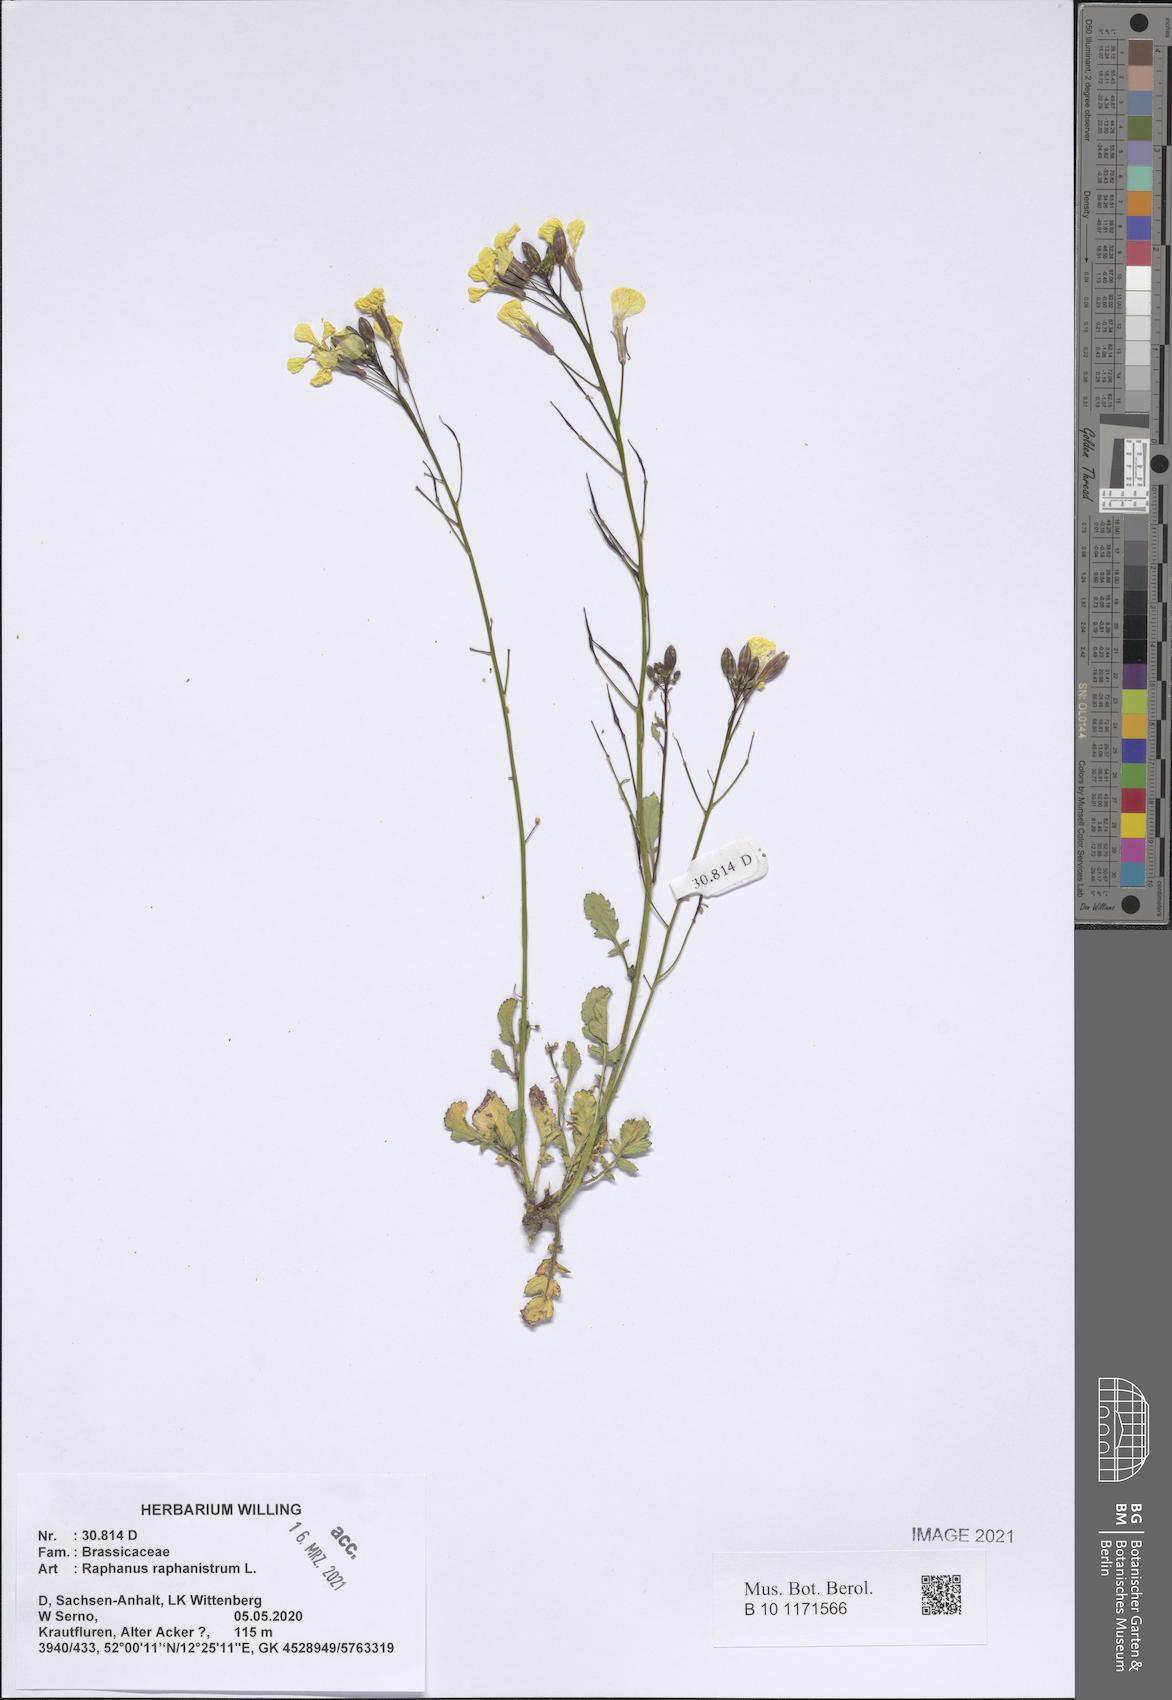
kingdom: Plantae
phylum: Tracheophyta
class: Magnoliopsida
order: Brassicales
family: Brassicaceae
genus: Raphanus
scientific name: Raphanus raphanistrum
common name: Wild radish
